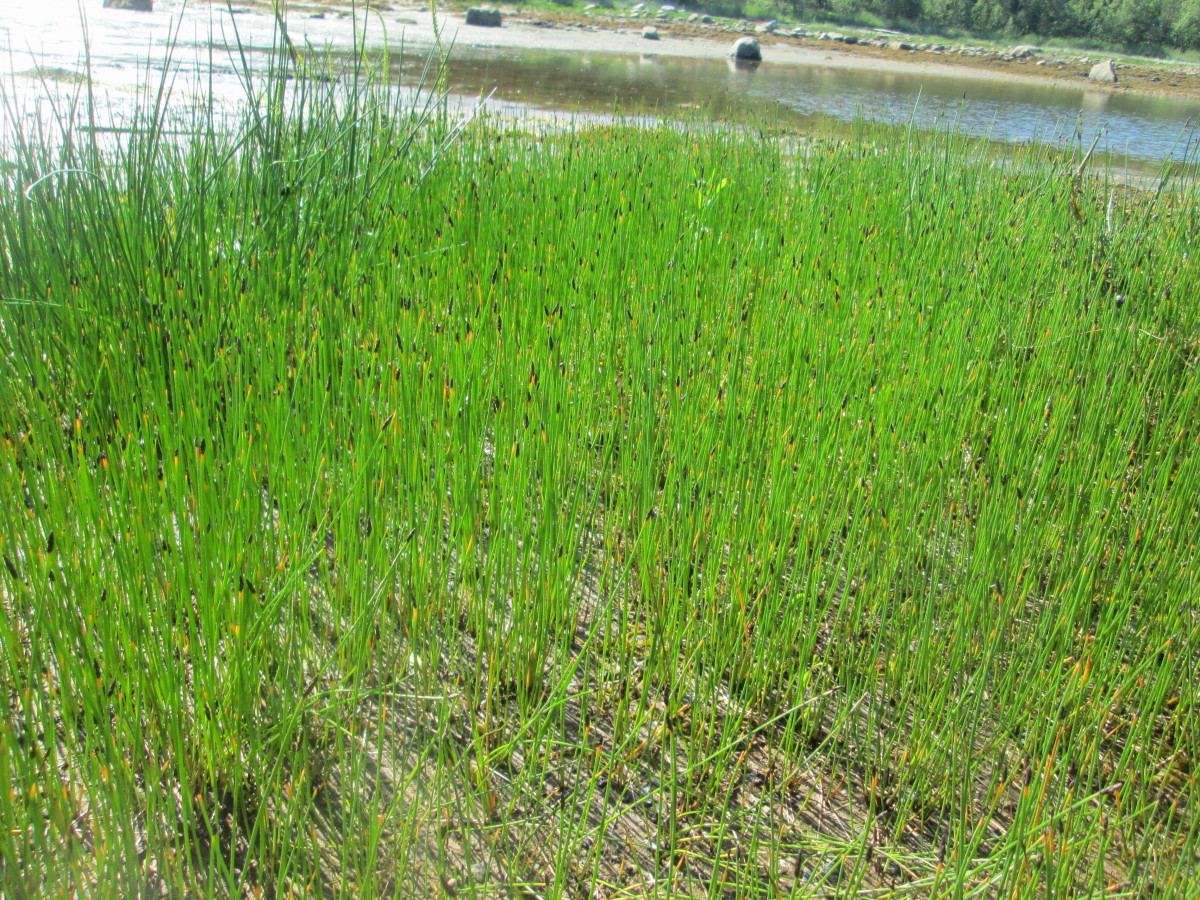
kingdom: Plantae
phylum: Tracheophyta
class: Liliopsida
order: Poales
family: Cyperaceae
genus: Eleocharis
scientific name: Eleocharis quinqueflora
